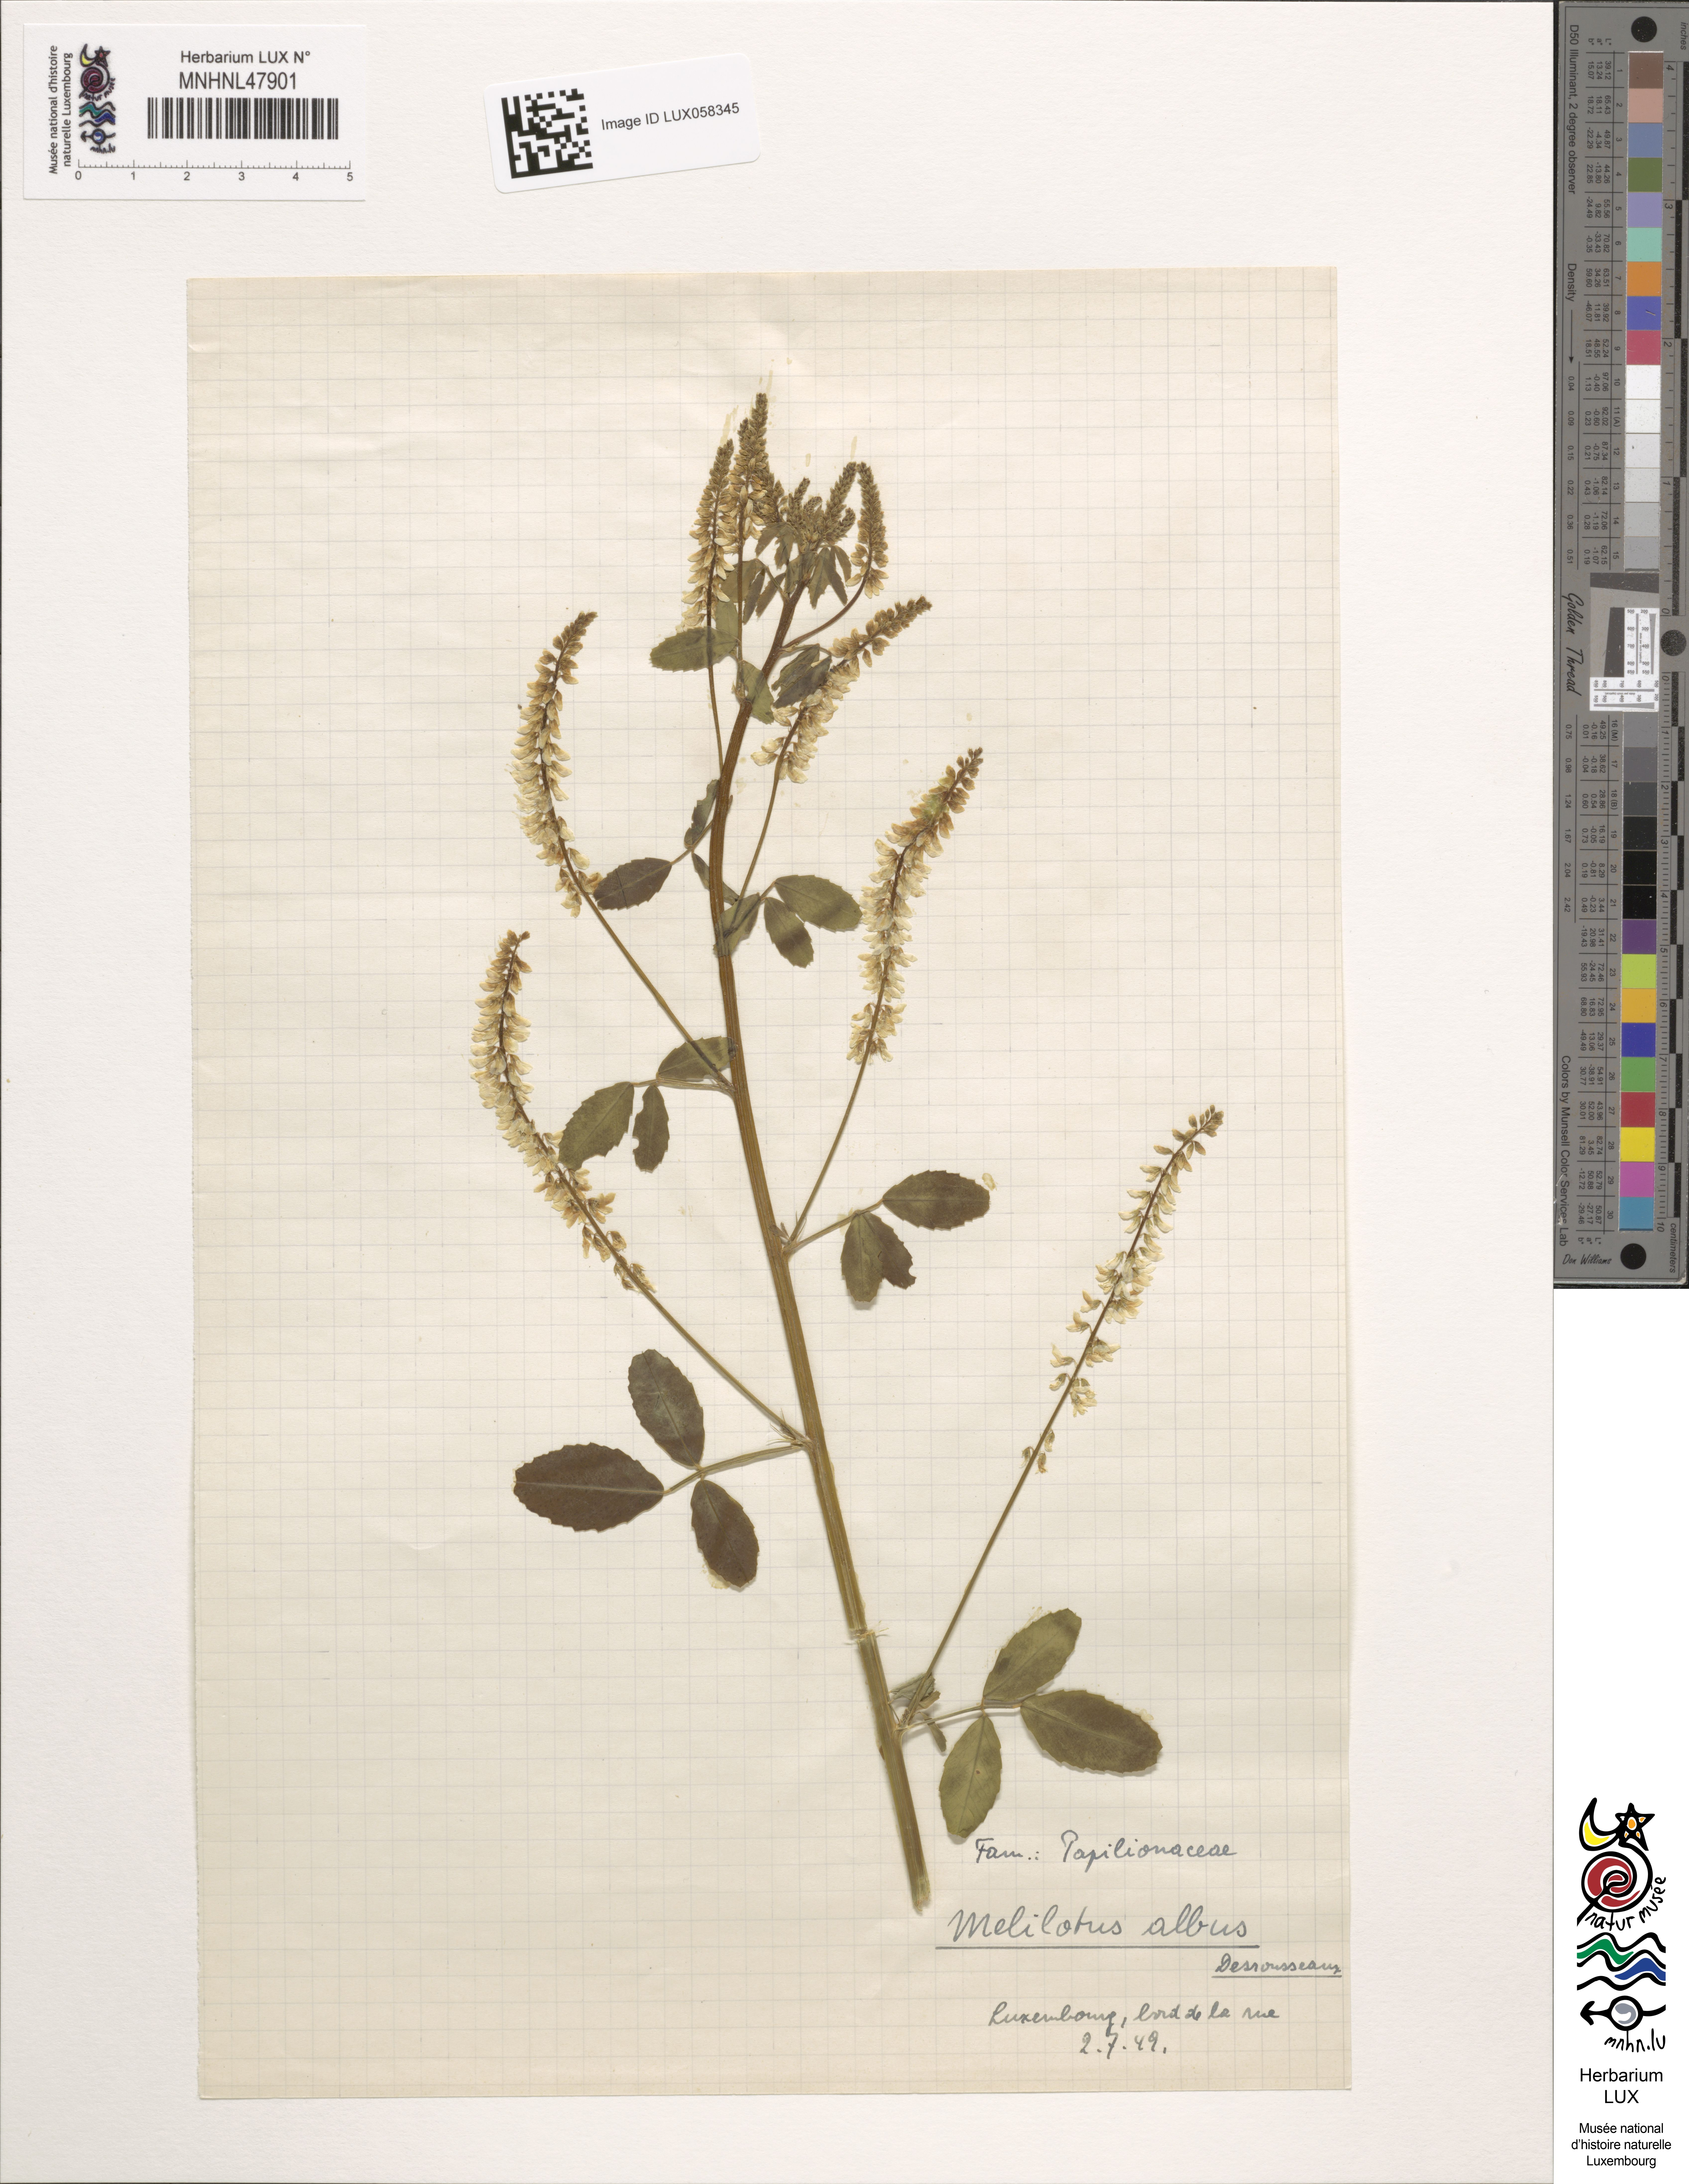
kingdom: Plantae
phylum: Tracheophyta
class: Magnoliopsida
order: Fabales
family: Fabaceae
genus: Melilotus
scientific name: Melilotus albus
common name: White melilot
